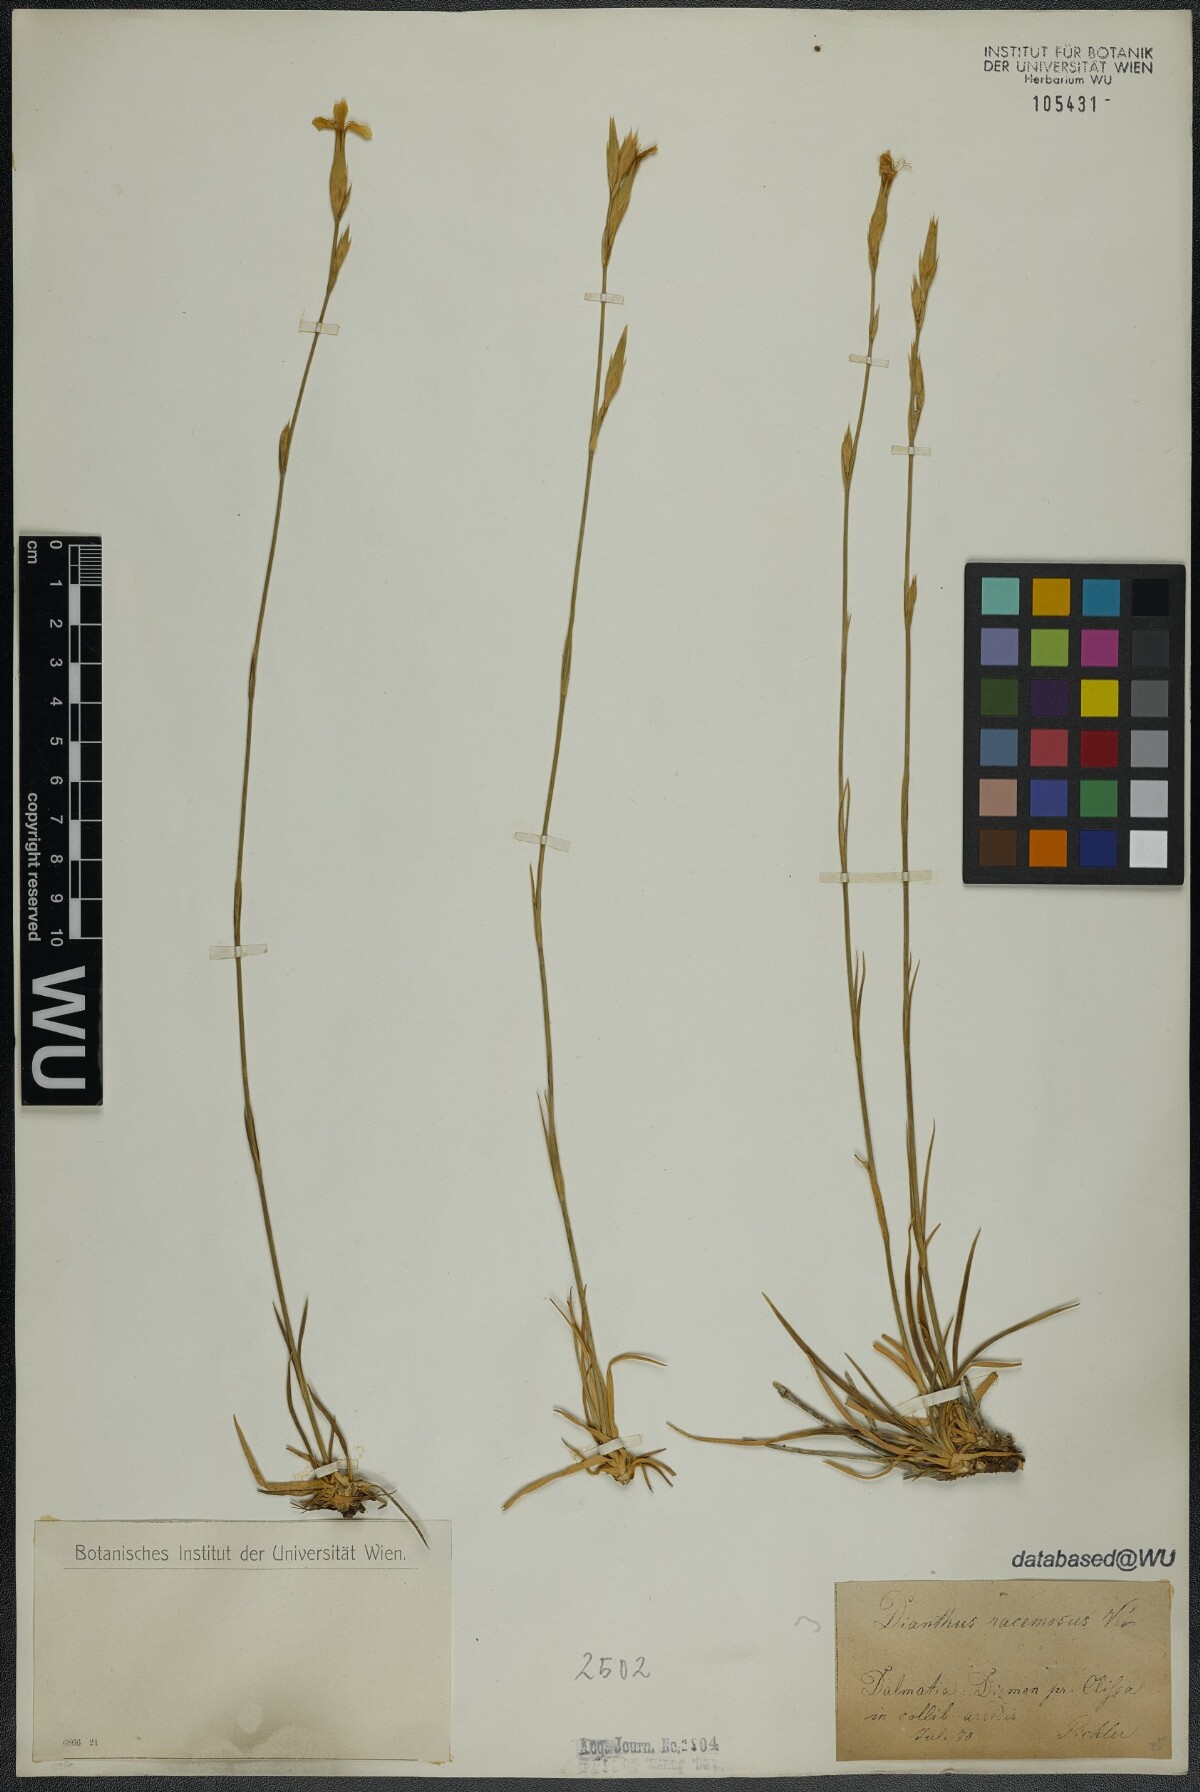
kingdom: Plantae
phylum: Tracheophyta
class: Magnoliopsida
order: Caryophyllales
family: Caryophyllaceae
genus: Dianthus
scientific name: Dianthus ciliatus
